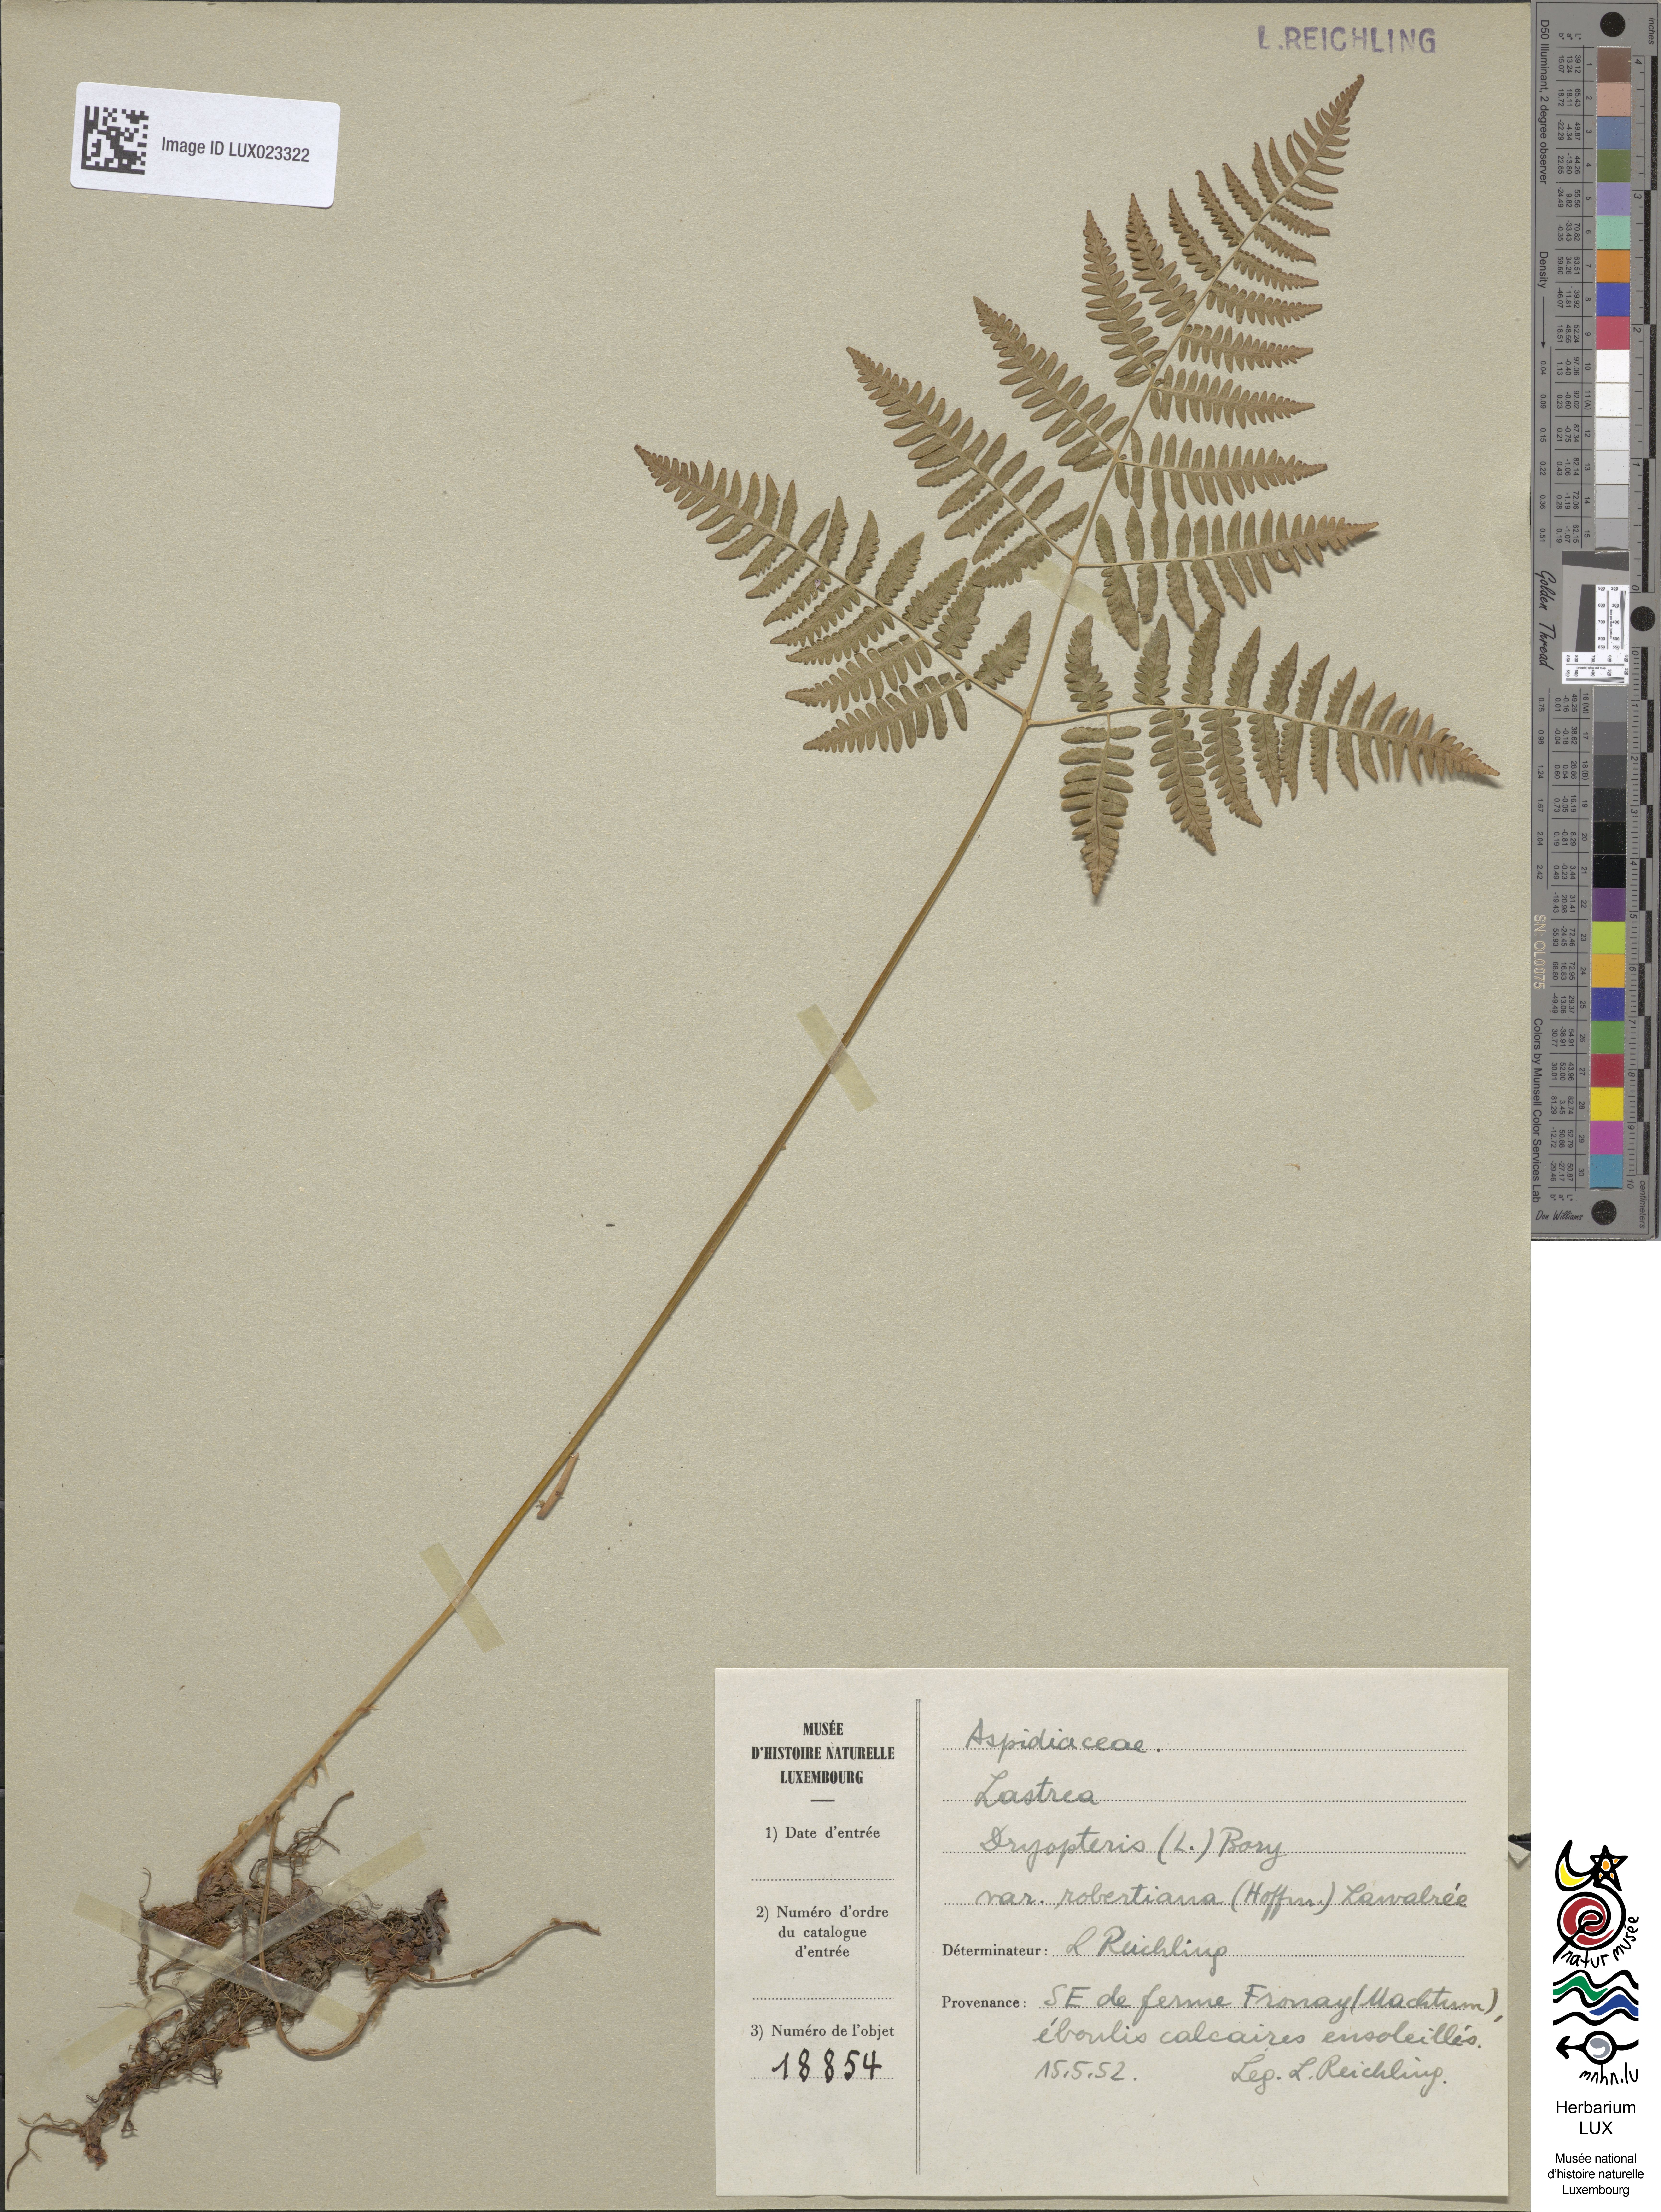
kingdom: Plantae
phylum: Tracheophyta
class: Polypodiopsida
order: Polypodiales
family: Cystopteridaceae
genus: Gymnocarpium
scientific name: Gymnocarpium robertianum
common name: Limestone fern
